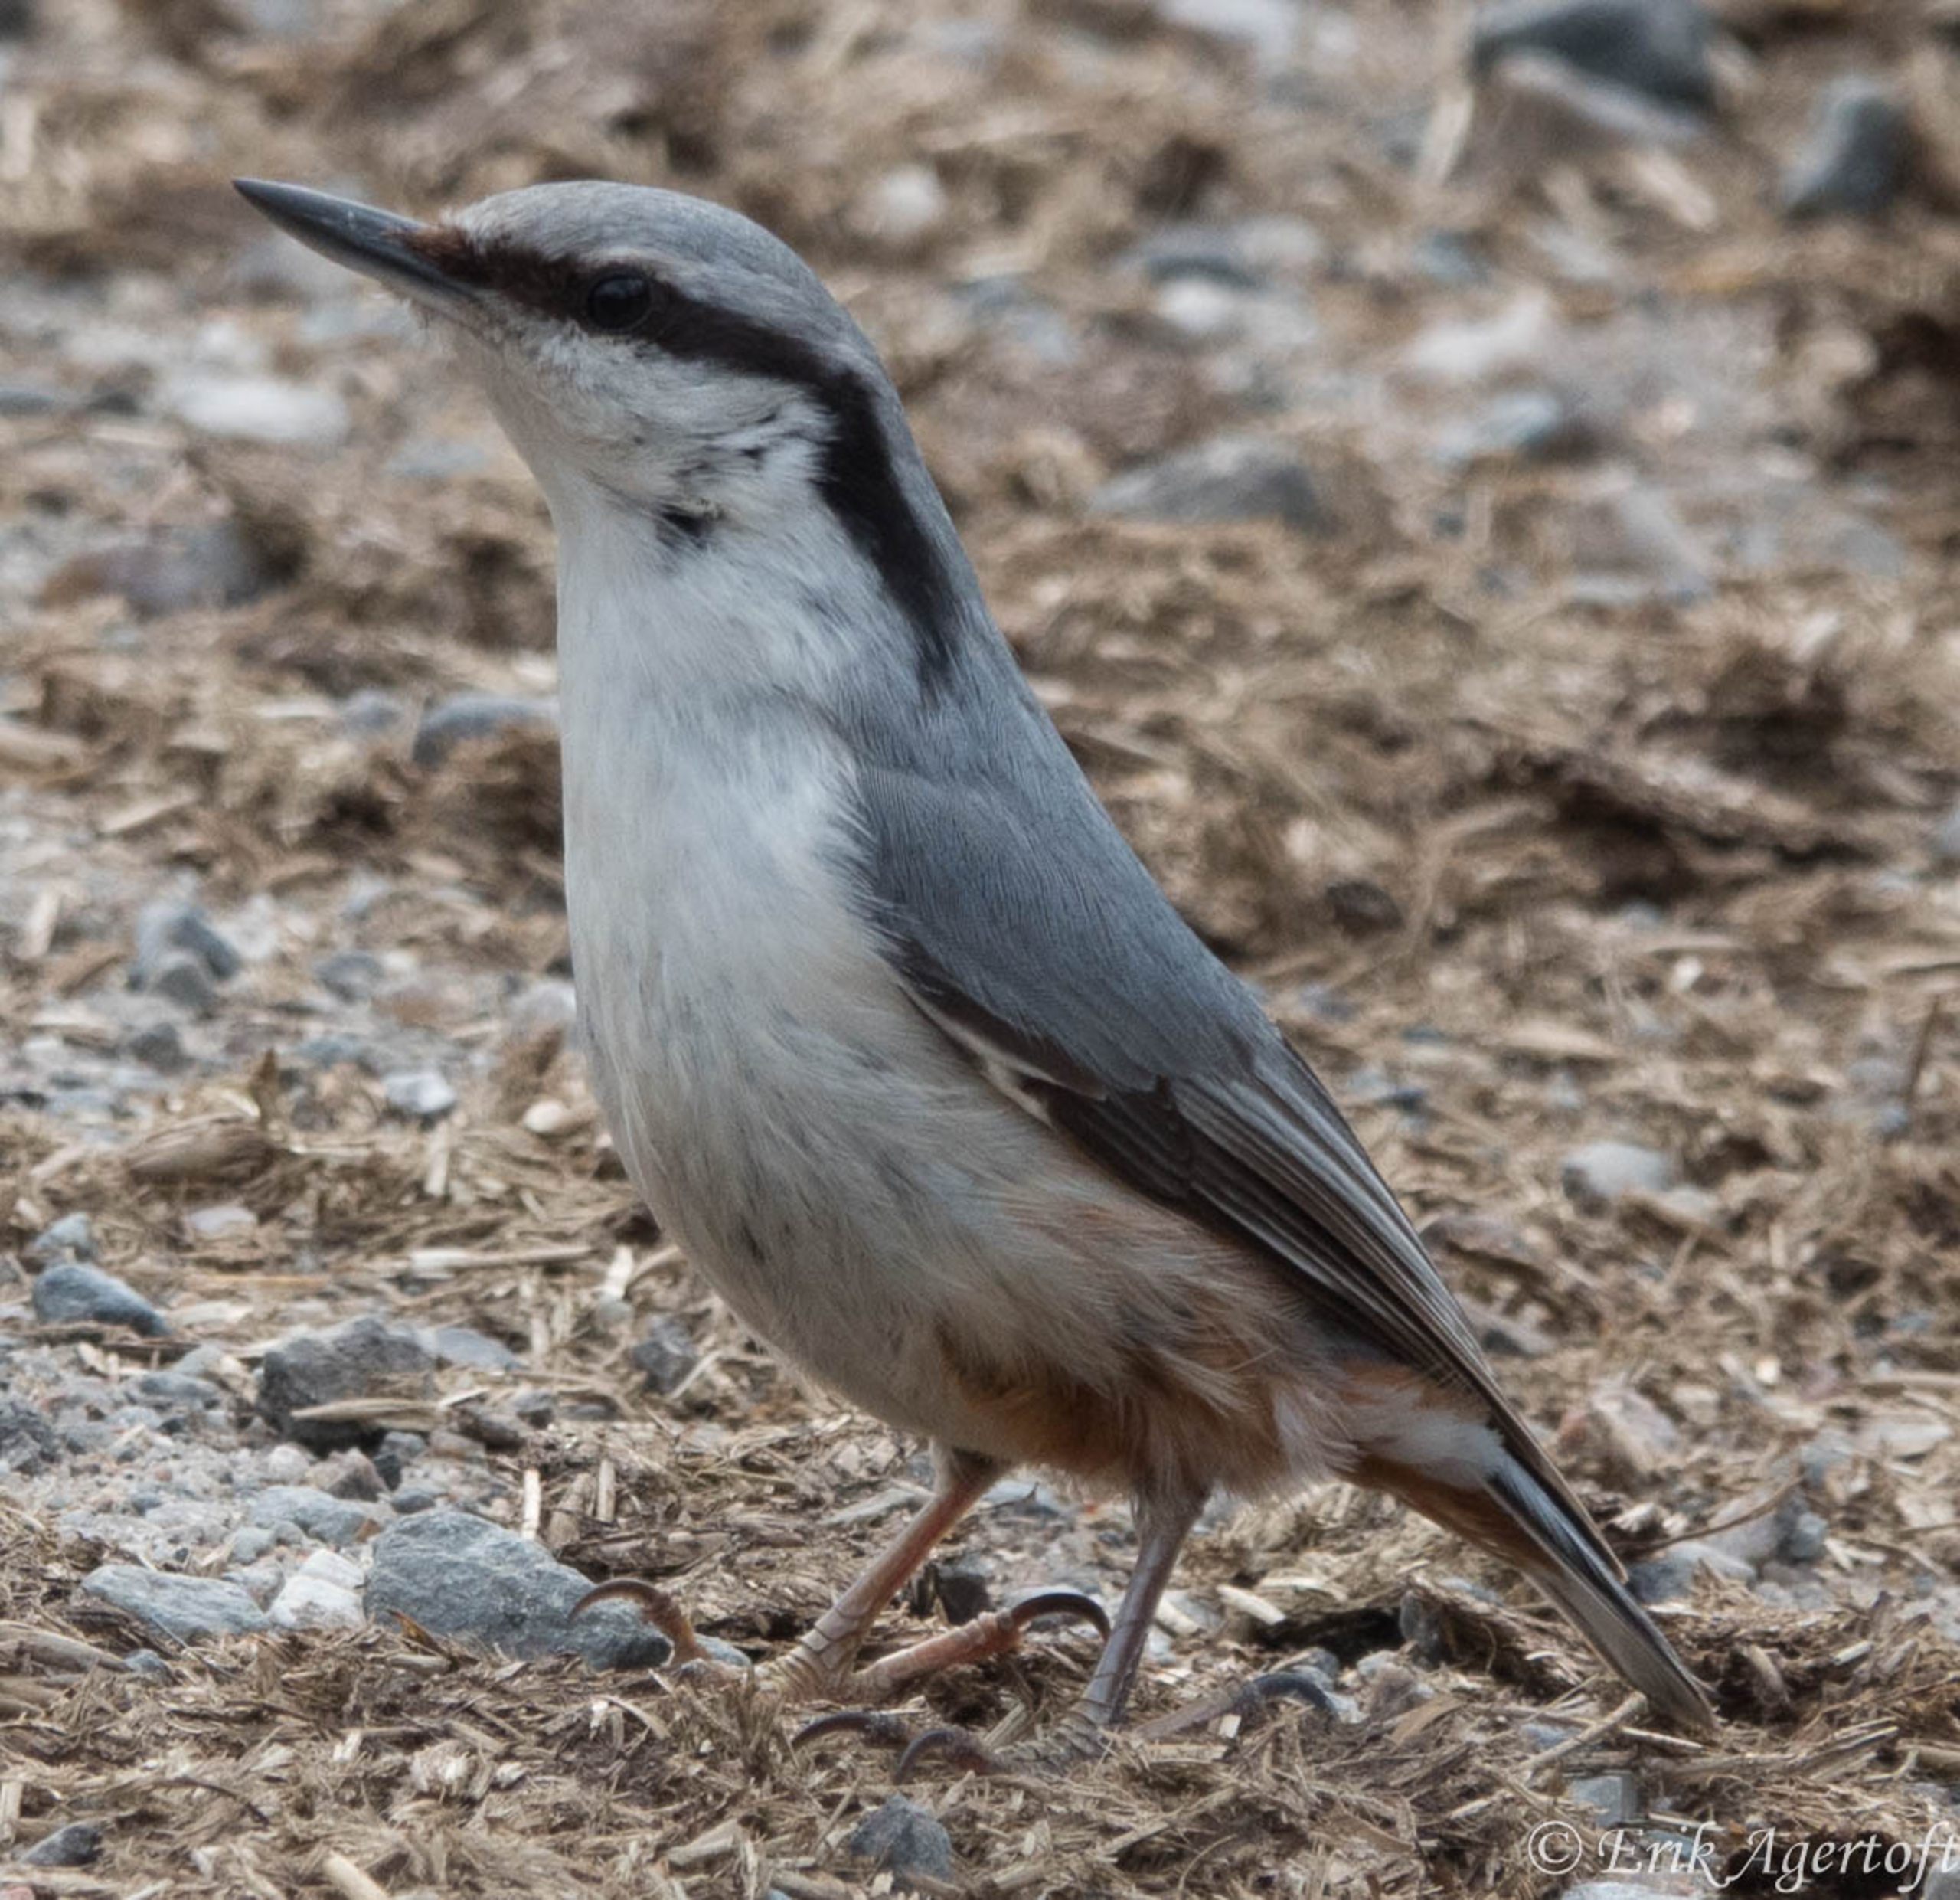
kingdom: Animalia
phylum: Chordata
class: Aves
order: Passeriformes
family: Sittidae
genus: Sitta
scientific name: Sitta europaea
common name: Spætmejse
